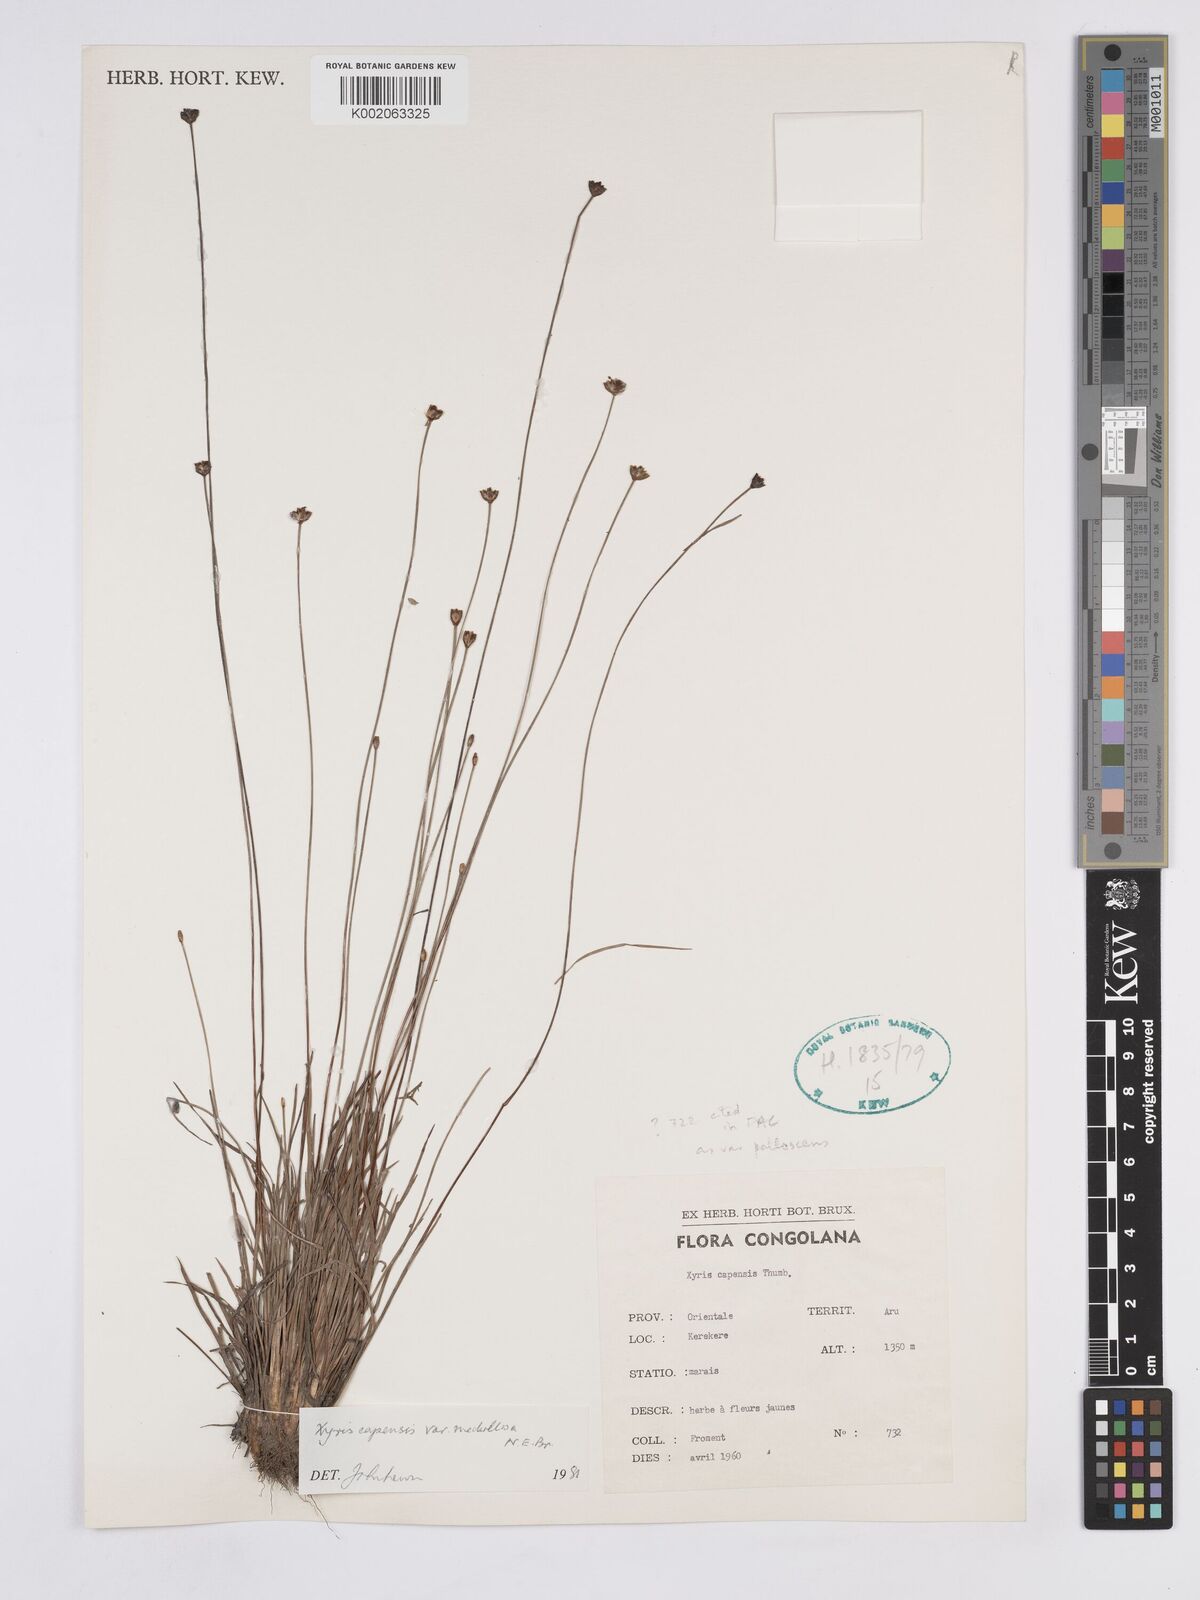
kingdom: Plantae
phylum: Tracheophyta
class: Liliopsida
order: Poales
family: Xyridaceae
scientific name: Xyridaceae
